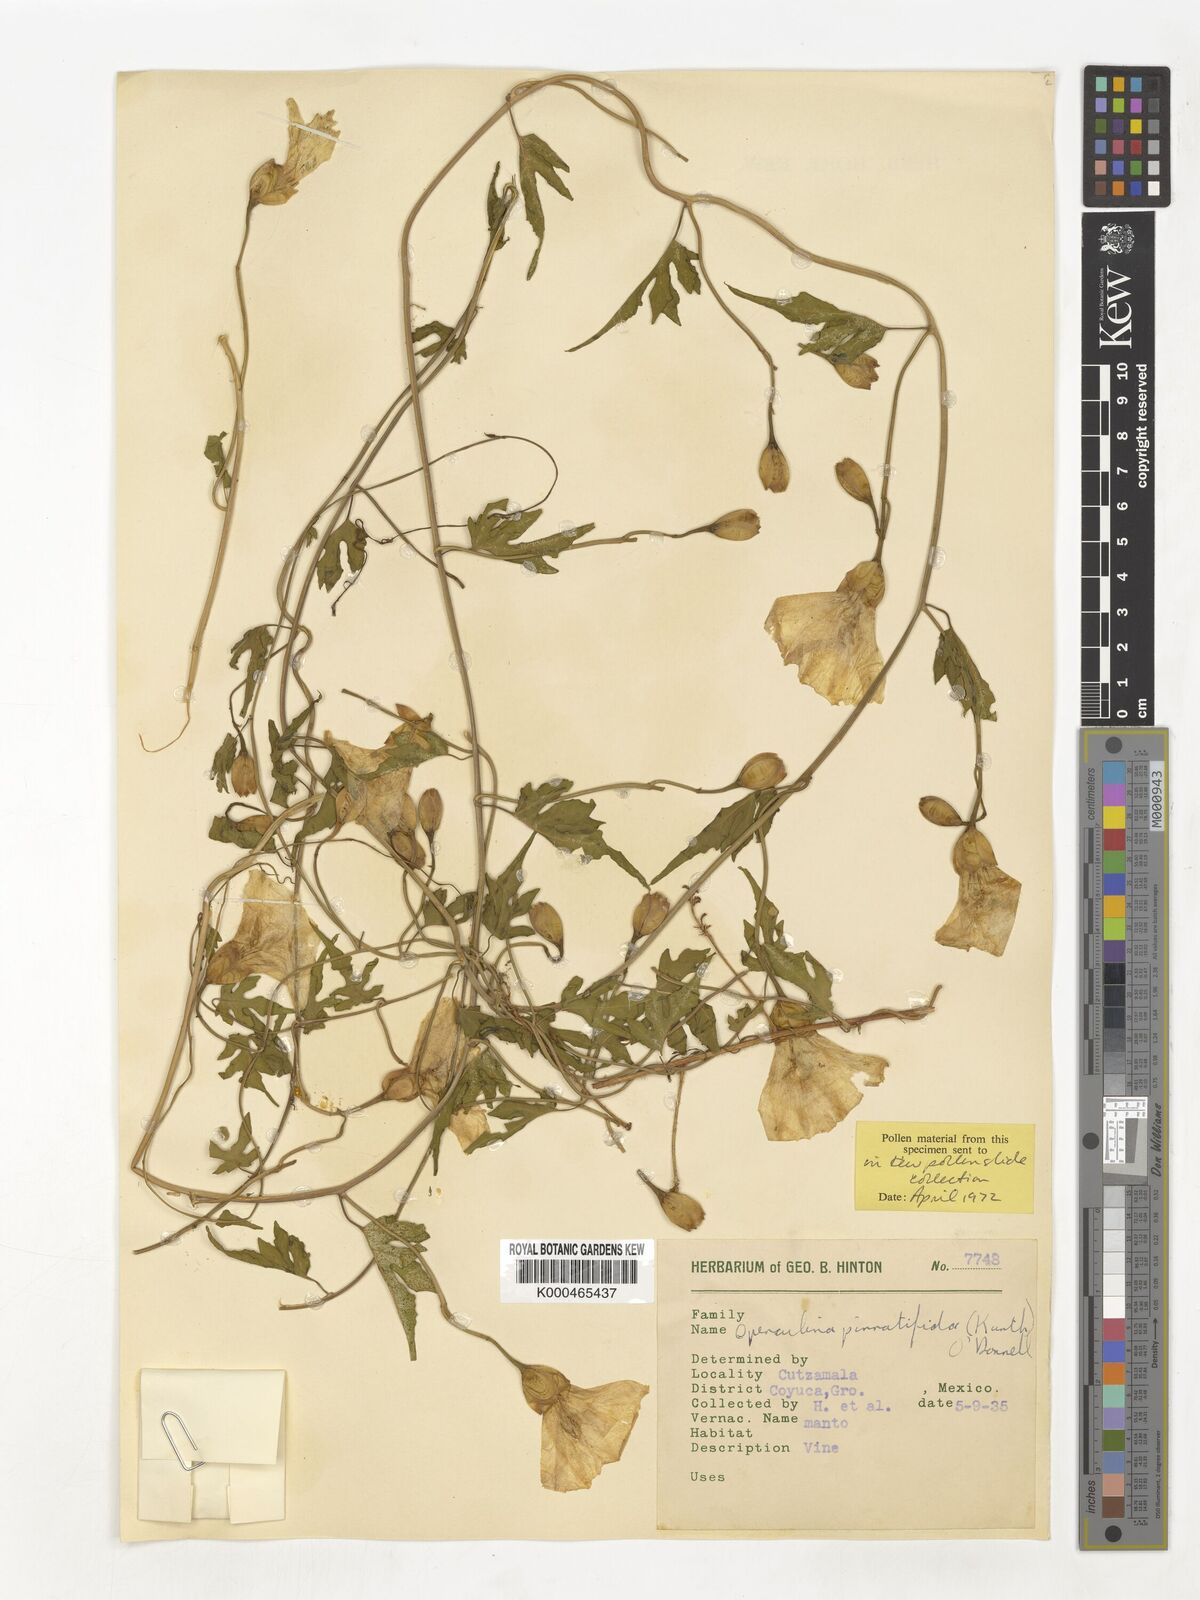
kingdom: Plantae
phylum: Tracheophyta
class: Magnoliopsida
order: Solanales
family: Convolvulaceae
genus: Operculina
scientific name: Operculina
